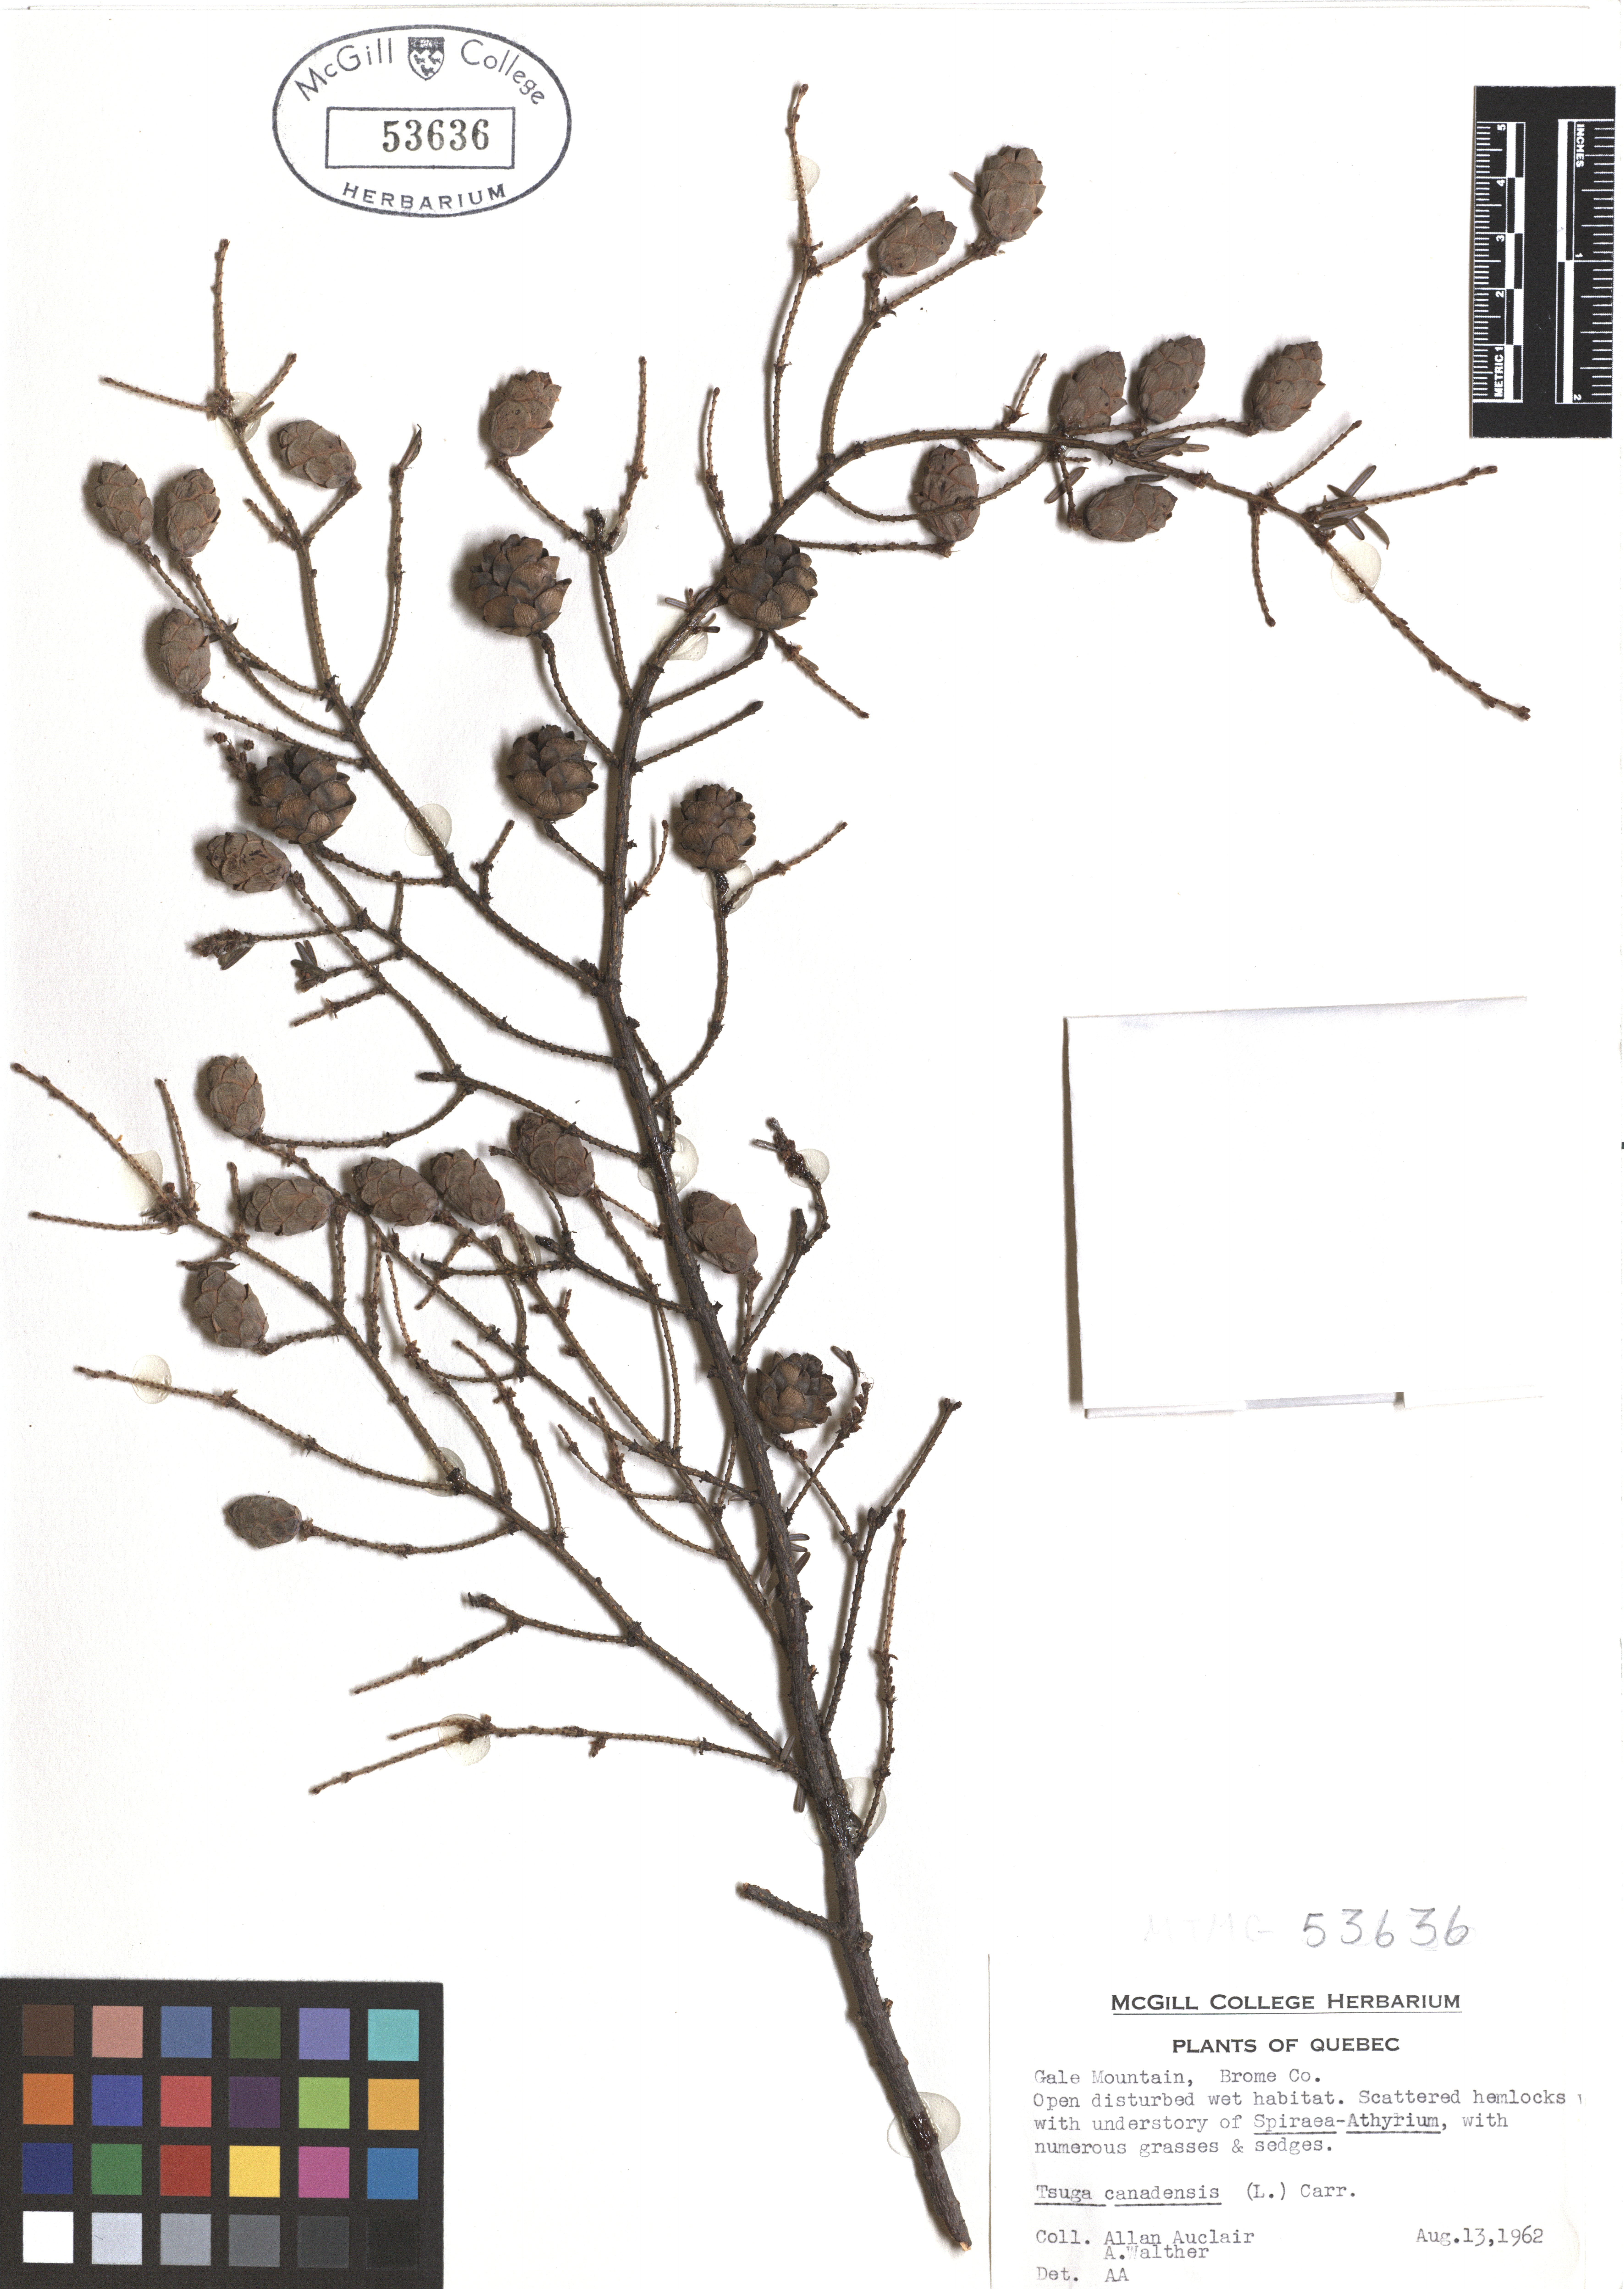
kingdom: Plantae
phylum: Tracheophyta
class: Pinopsida
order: Pinales
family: Pinaceae
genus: Tsuga
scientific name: Tsuga canadensis
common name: Eastern hemlock
